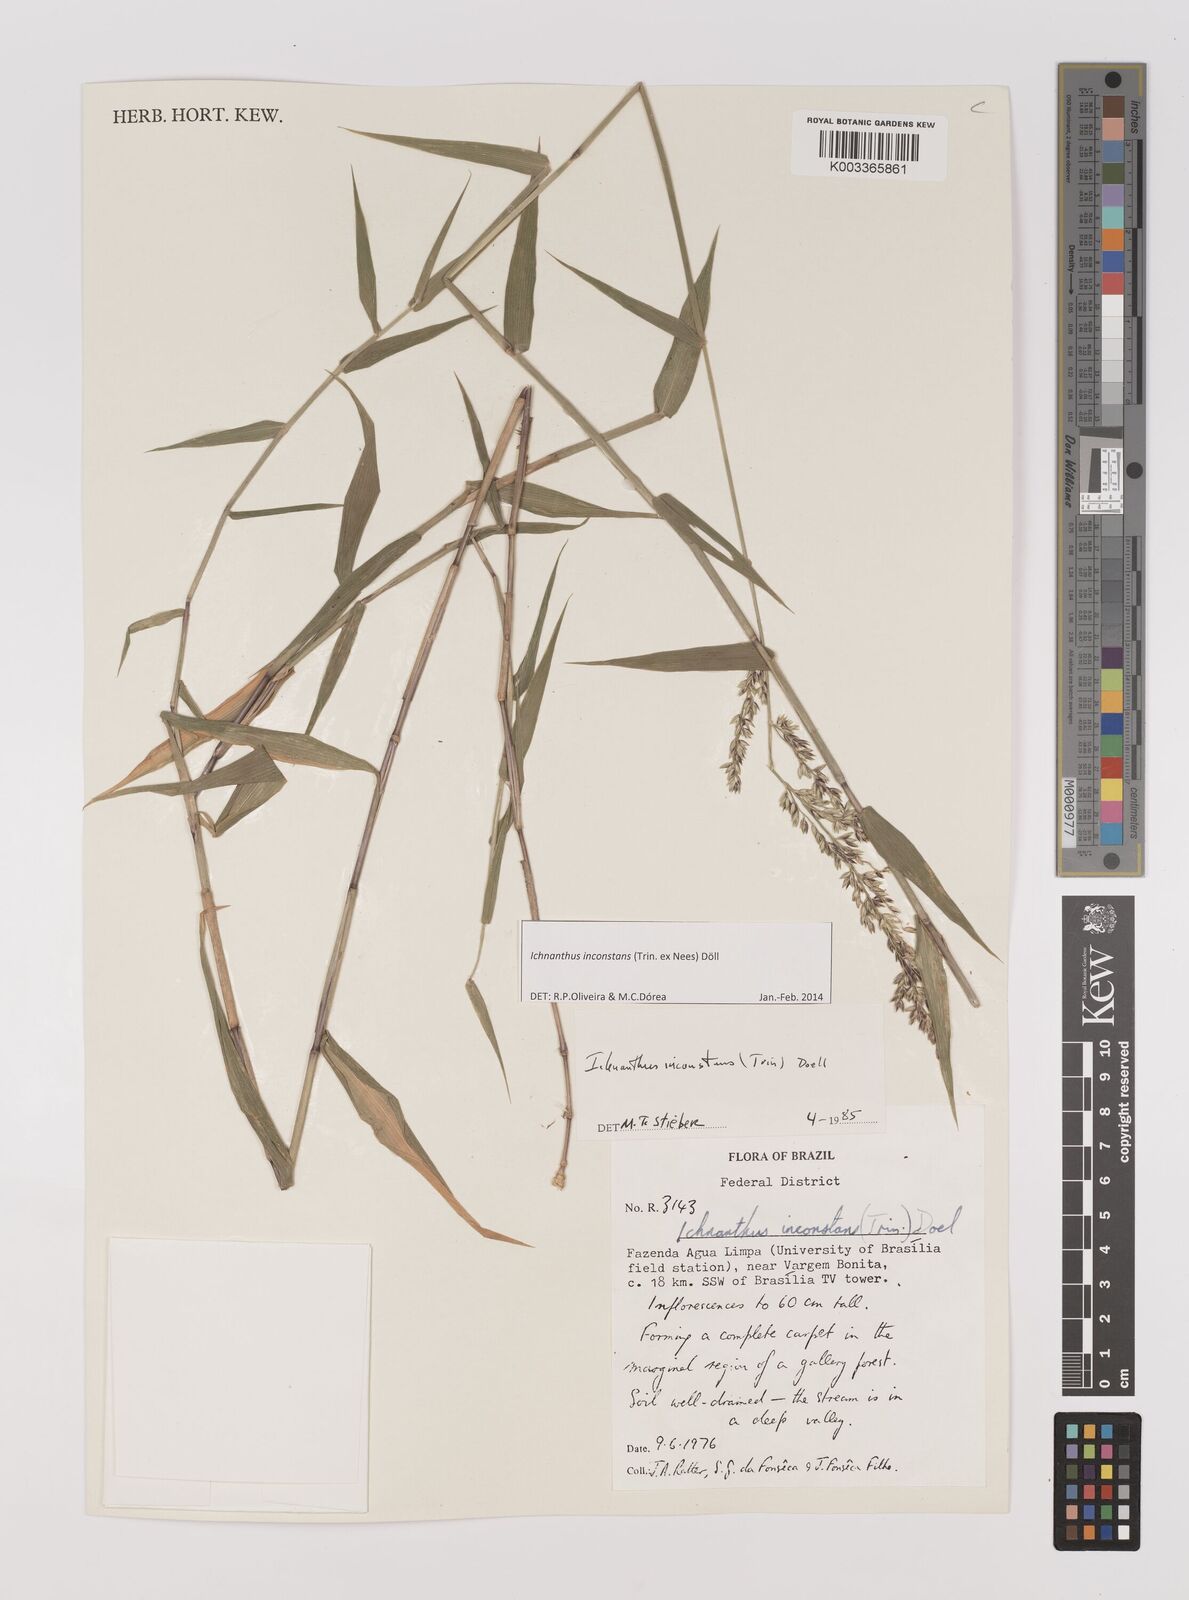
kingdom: Plantae
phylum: Tracheophyta
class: Liliopsida
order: Poales
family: Poaceae
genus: Ichnanthus
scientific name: Ichnanthus inconstans
